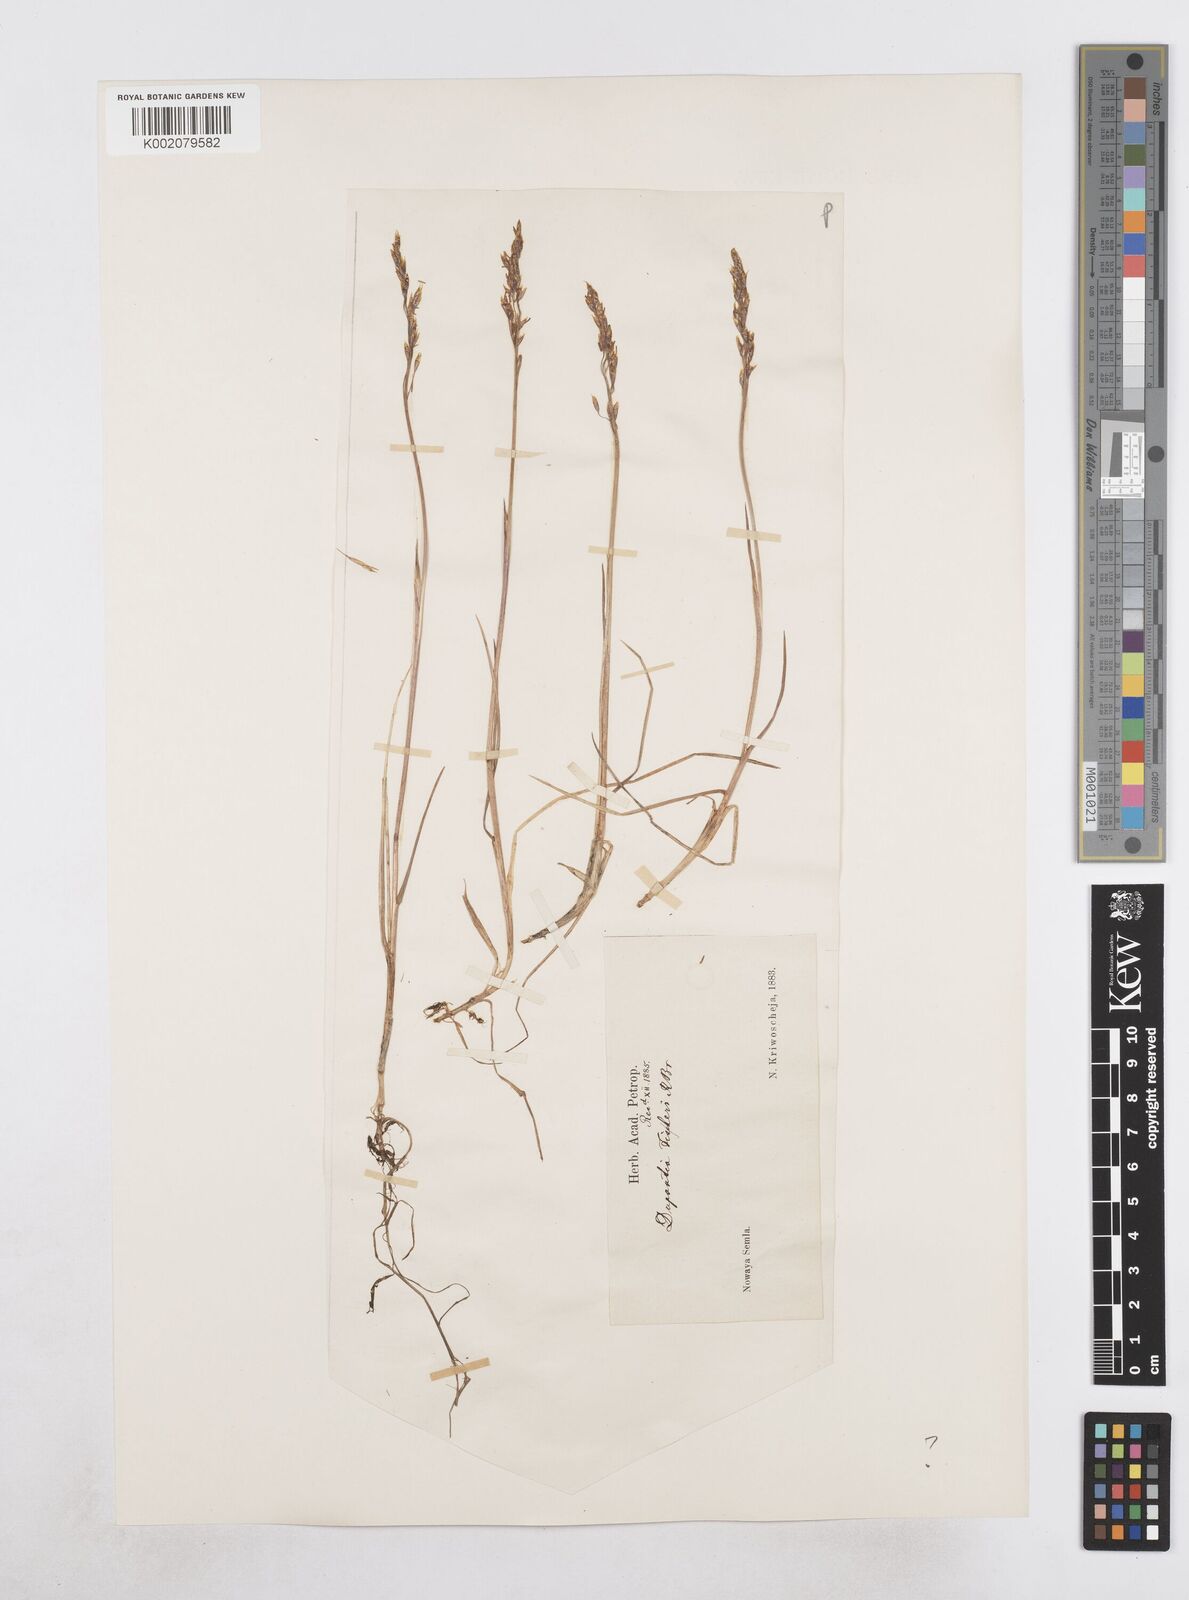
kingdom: Plantae
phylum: Tracheophyta
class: Liliopsida
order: Poales
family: Poaceae
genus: Dupontia
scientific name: Dupontia fisheri
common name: Tundra grass
